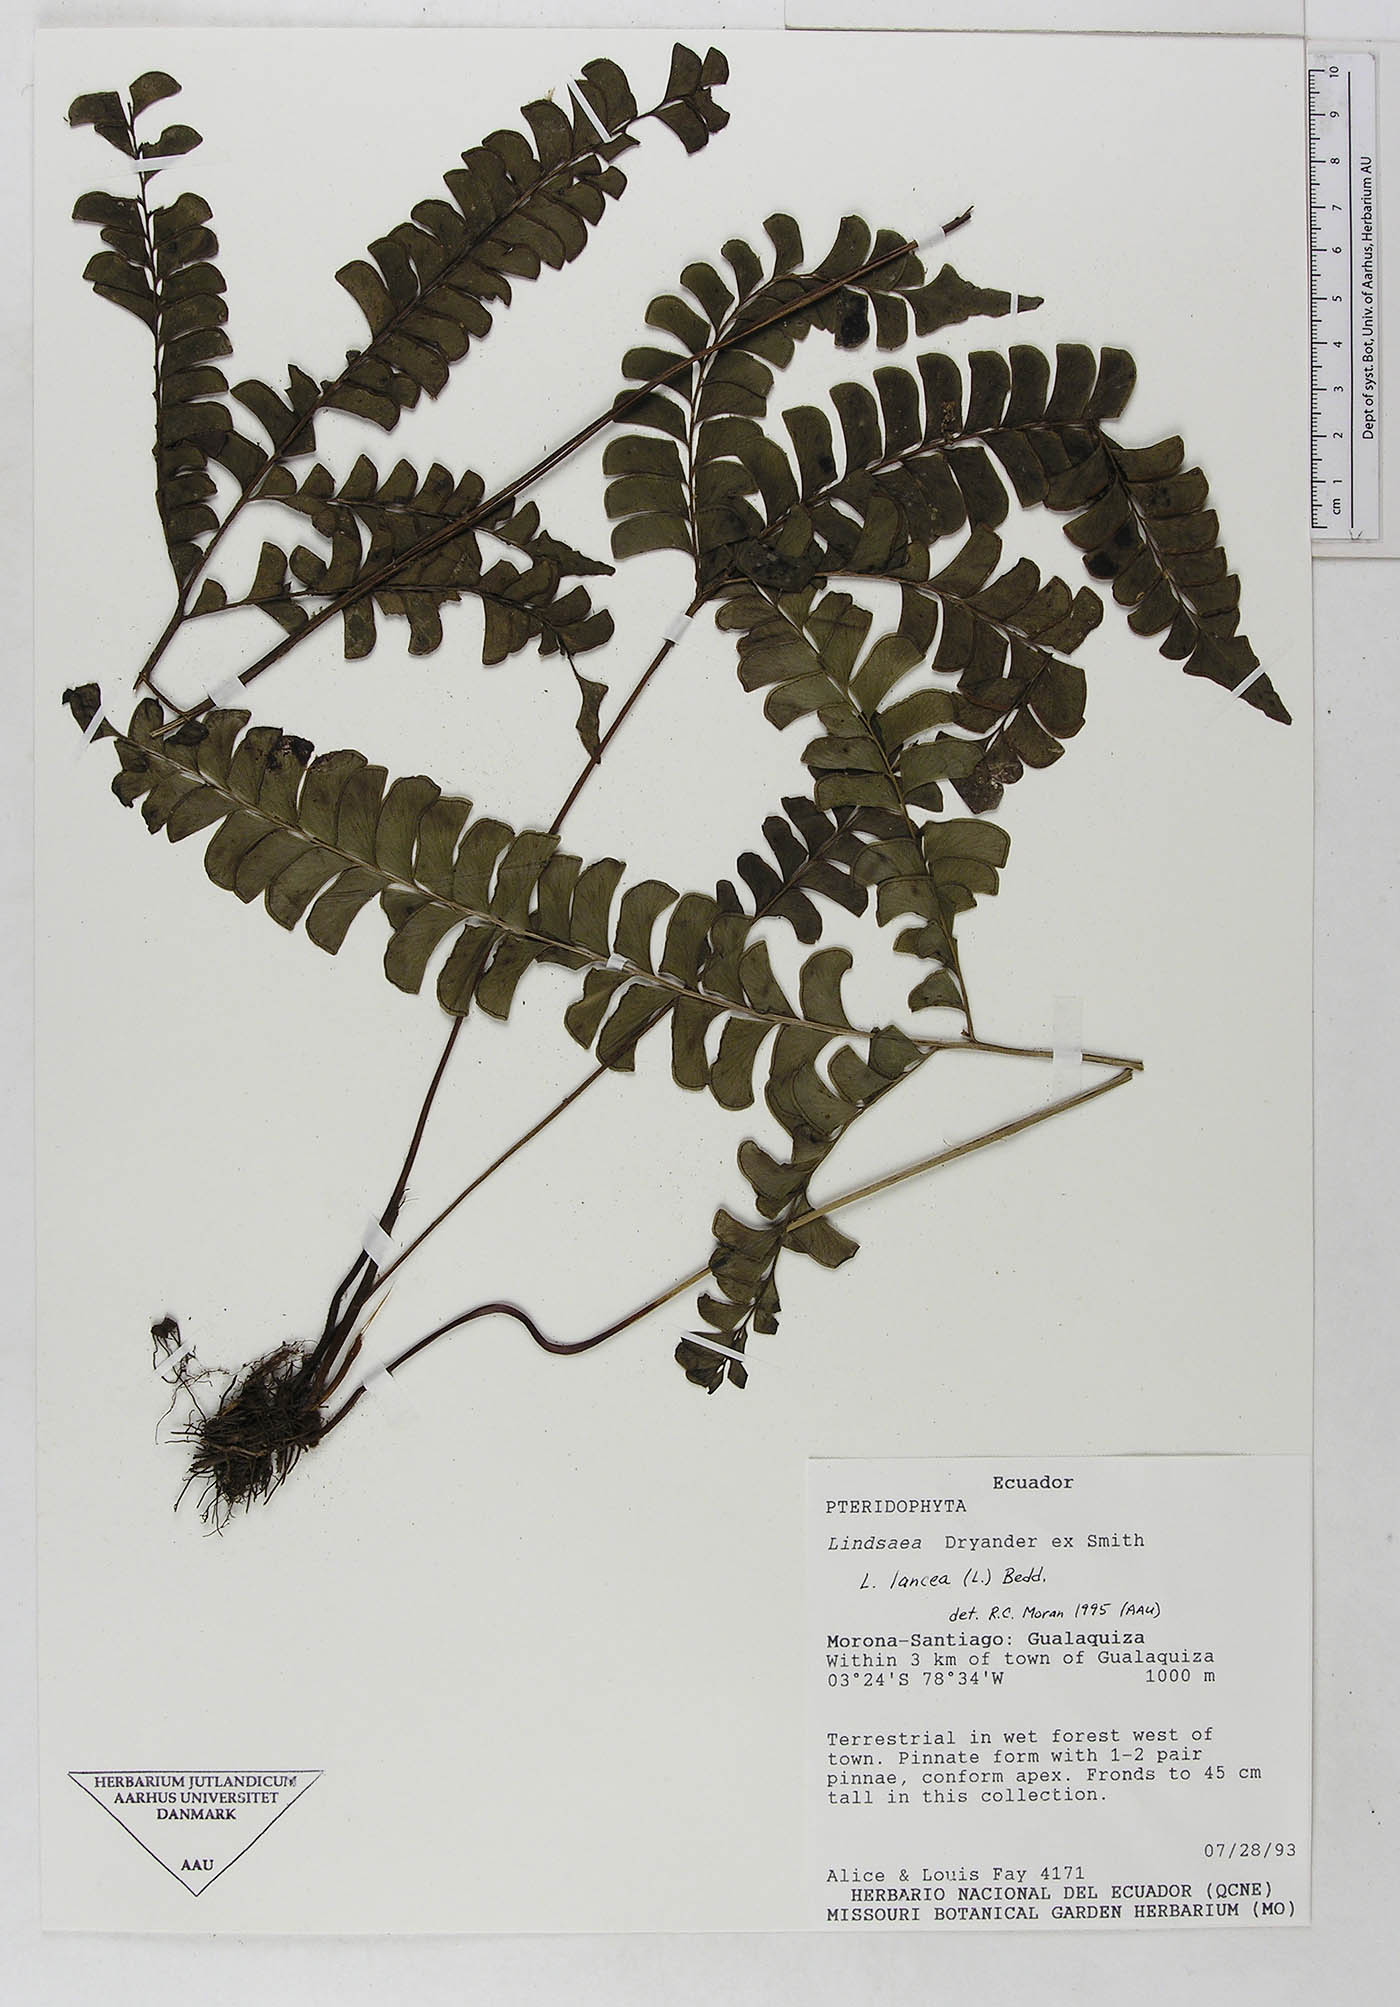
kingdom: Plantae
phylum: Tracheophyta
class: Polypodiopsida
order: Polypodiales
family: Dennstaedtiaceae
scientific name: Dennstaedtiaceae
